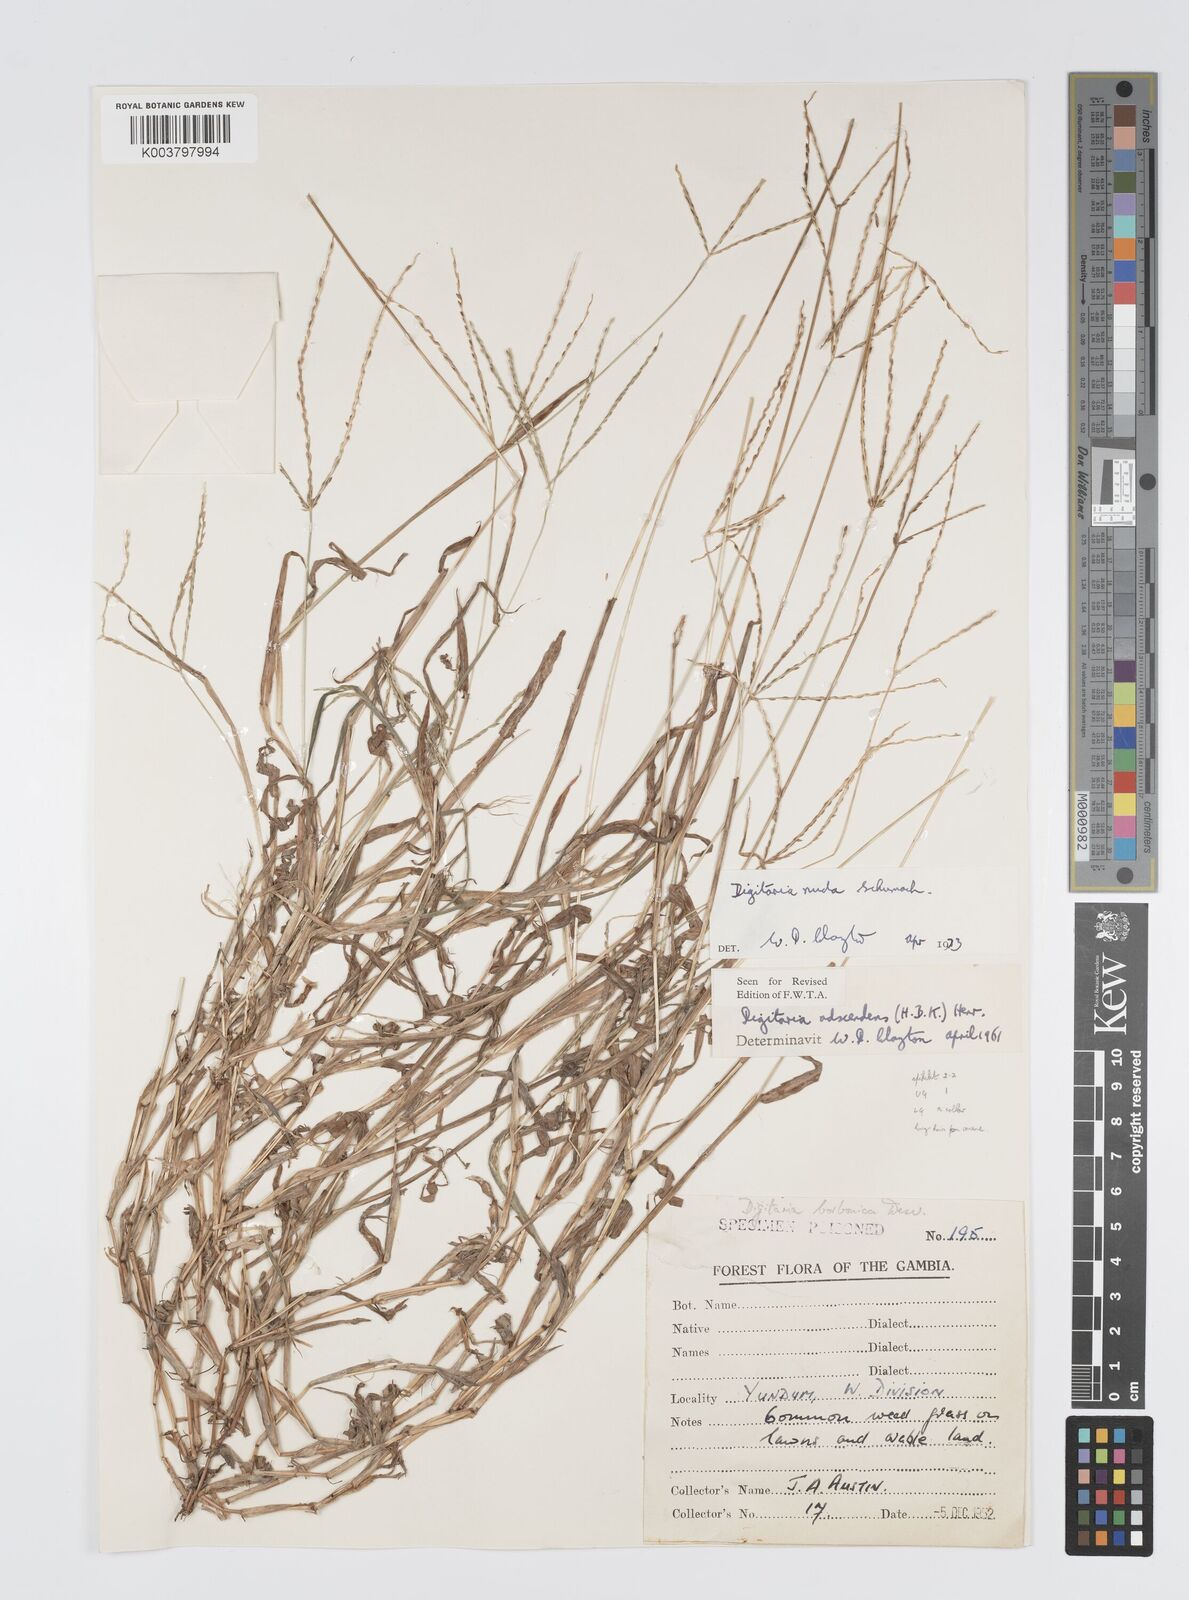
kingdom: Plantae
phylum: Tracheophyta
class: Liliopsida
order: Poales
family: Poaceae
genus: Digitaria
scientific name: Digitaria nuda
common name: Naked crabgrass
